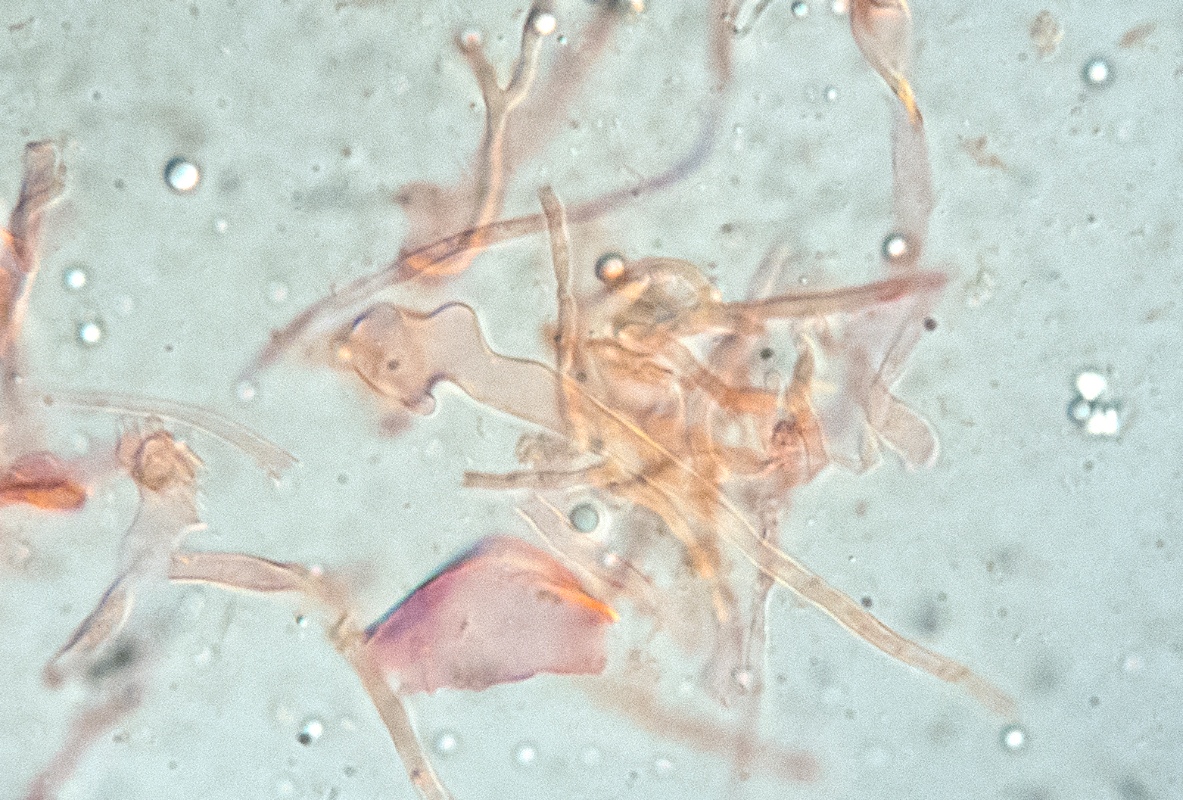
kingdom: Fungi
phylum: Basidiomycota
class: Agaricomycetes
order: Agaricales
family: Mycenaceae
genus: Mycena
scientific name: Mycena scirpicola
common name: flagelhåret huesvamp
